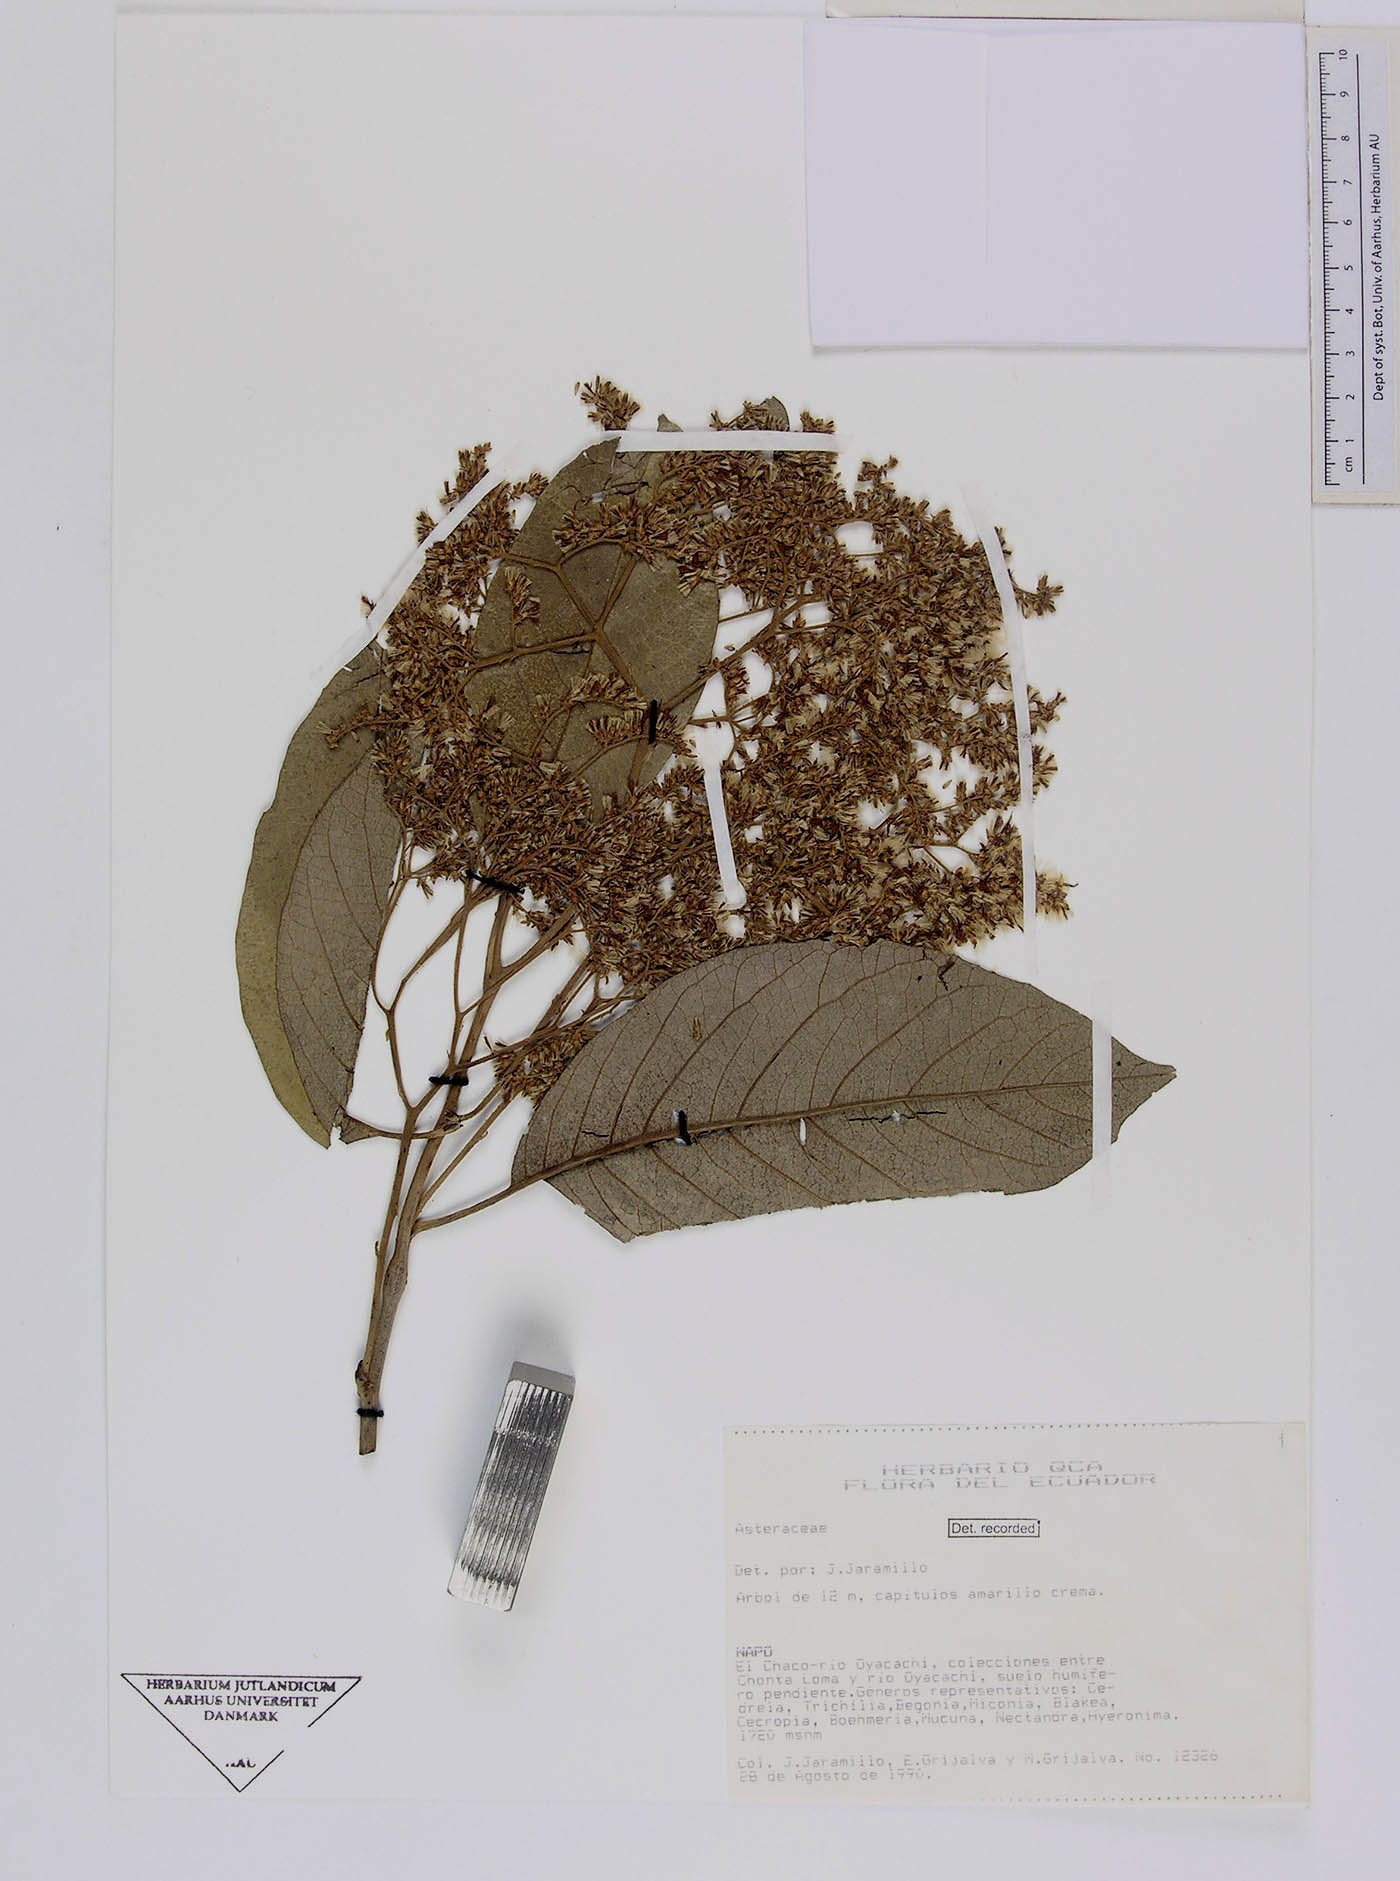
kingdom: Plantae
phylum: Tracheophyta
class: Magnoliopsida
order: Asterales
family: Asteraceae
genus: Critoniopsis
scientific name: Critoniopsis cerulosa
